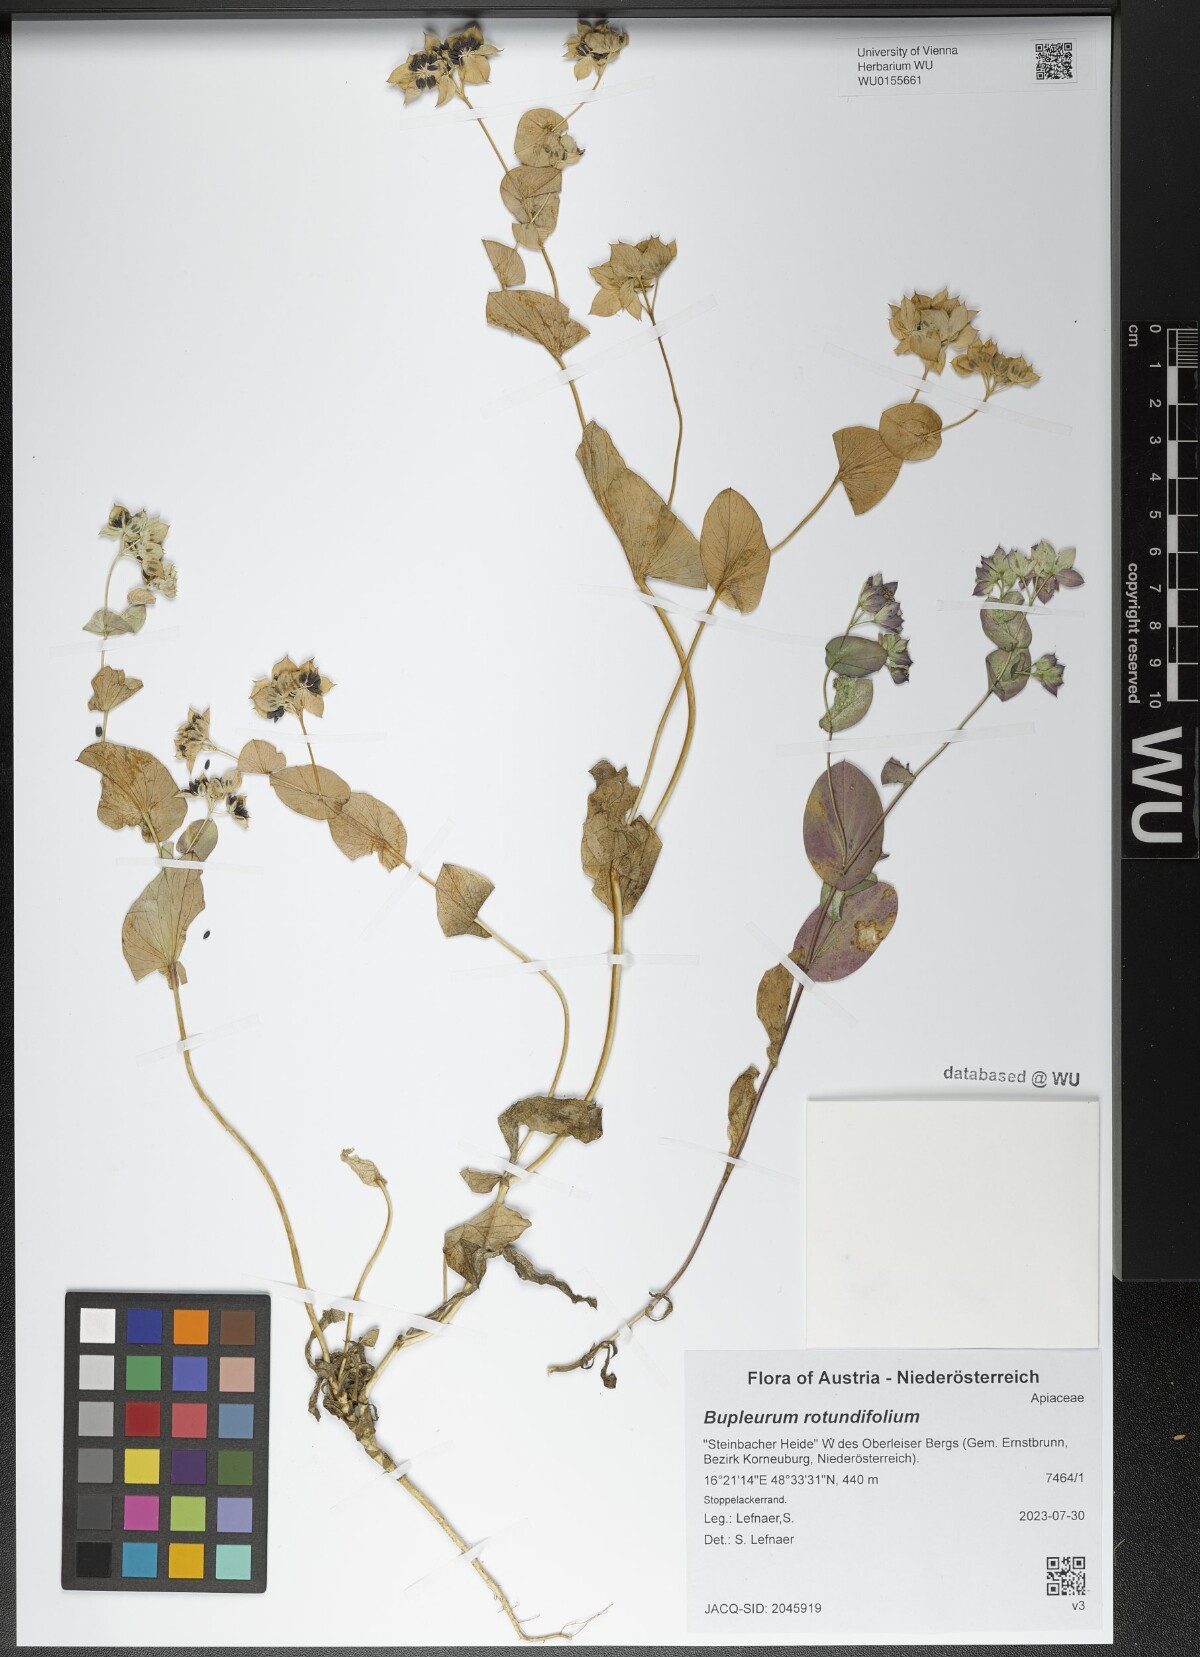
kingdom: Plantae
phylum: Tracheophyta
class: Magnoliopsida
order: Apiales
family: Apiaceae
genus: Bupleurum
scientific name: Bupleurum rotundifolium
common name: Thorow-wax
